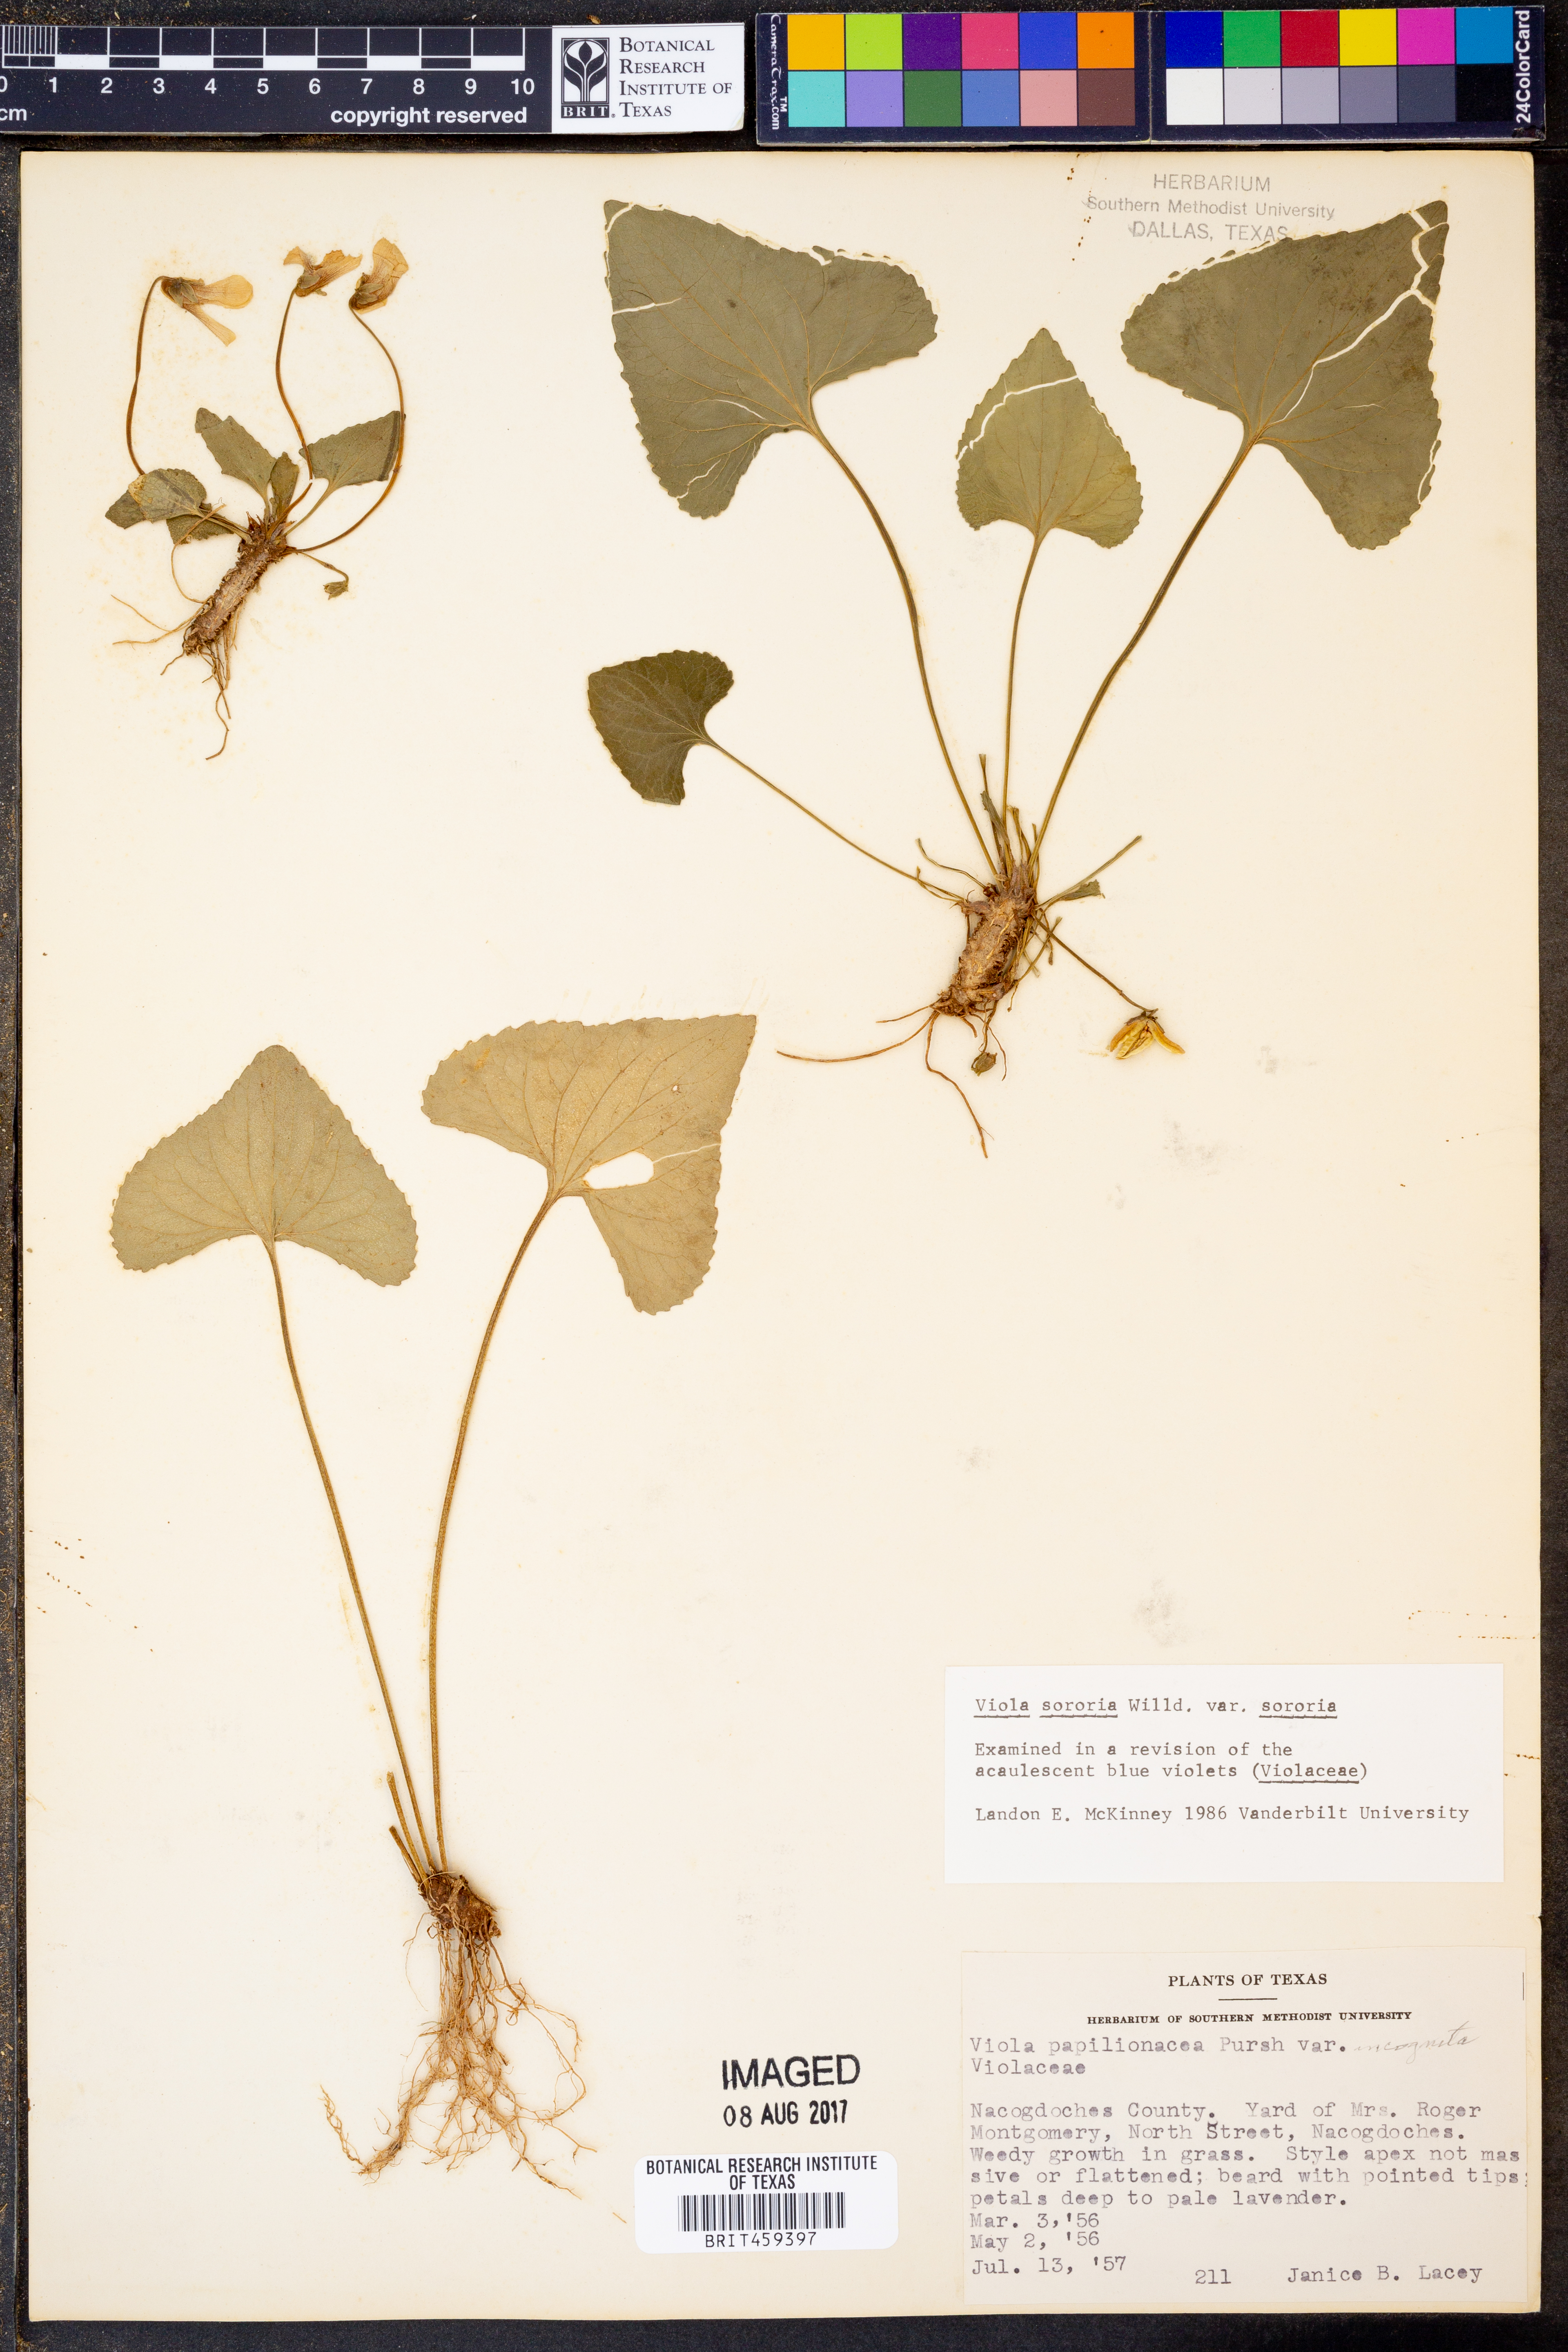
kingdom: Plantae
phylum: Tracheophyta
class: Magnoliopsida
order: Malpighiales
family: Violaceae
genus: Viola
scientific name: Viola sororia
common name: Dooryard violet
